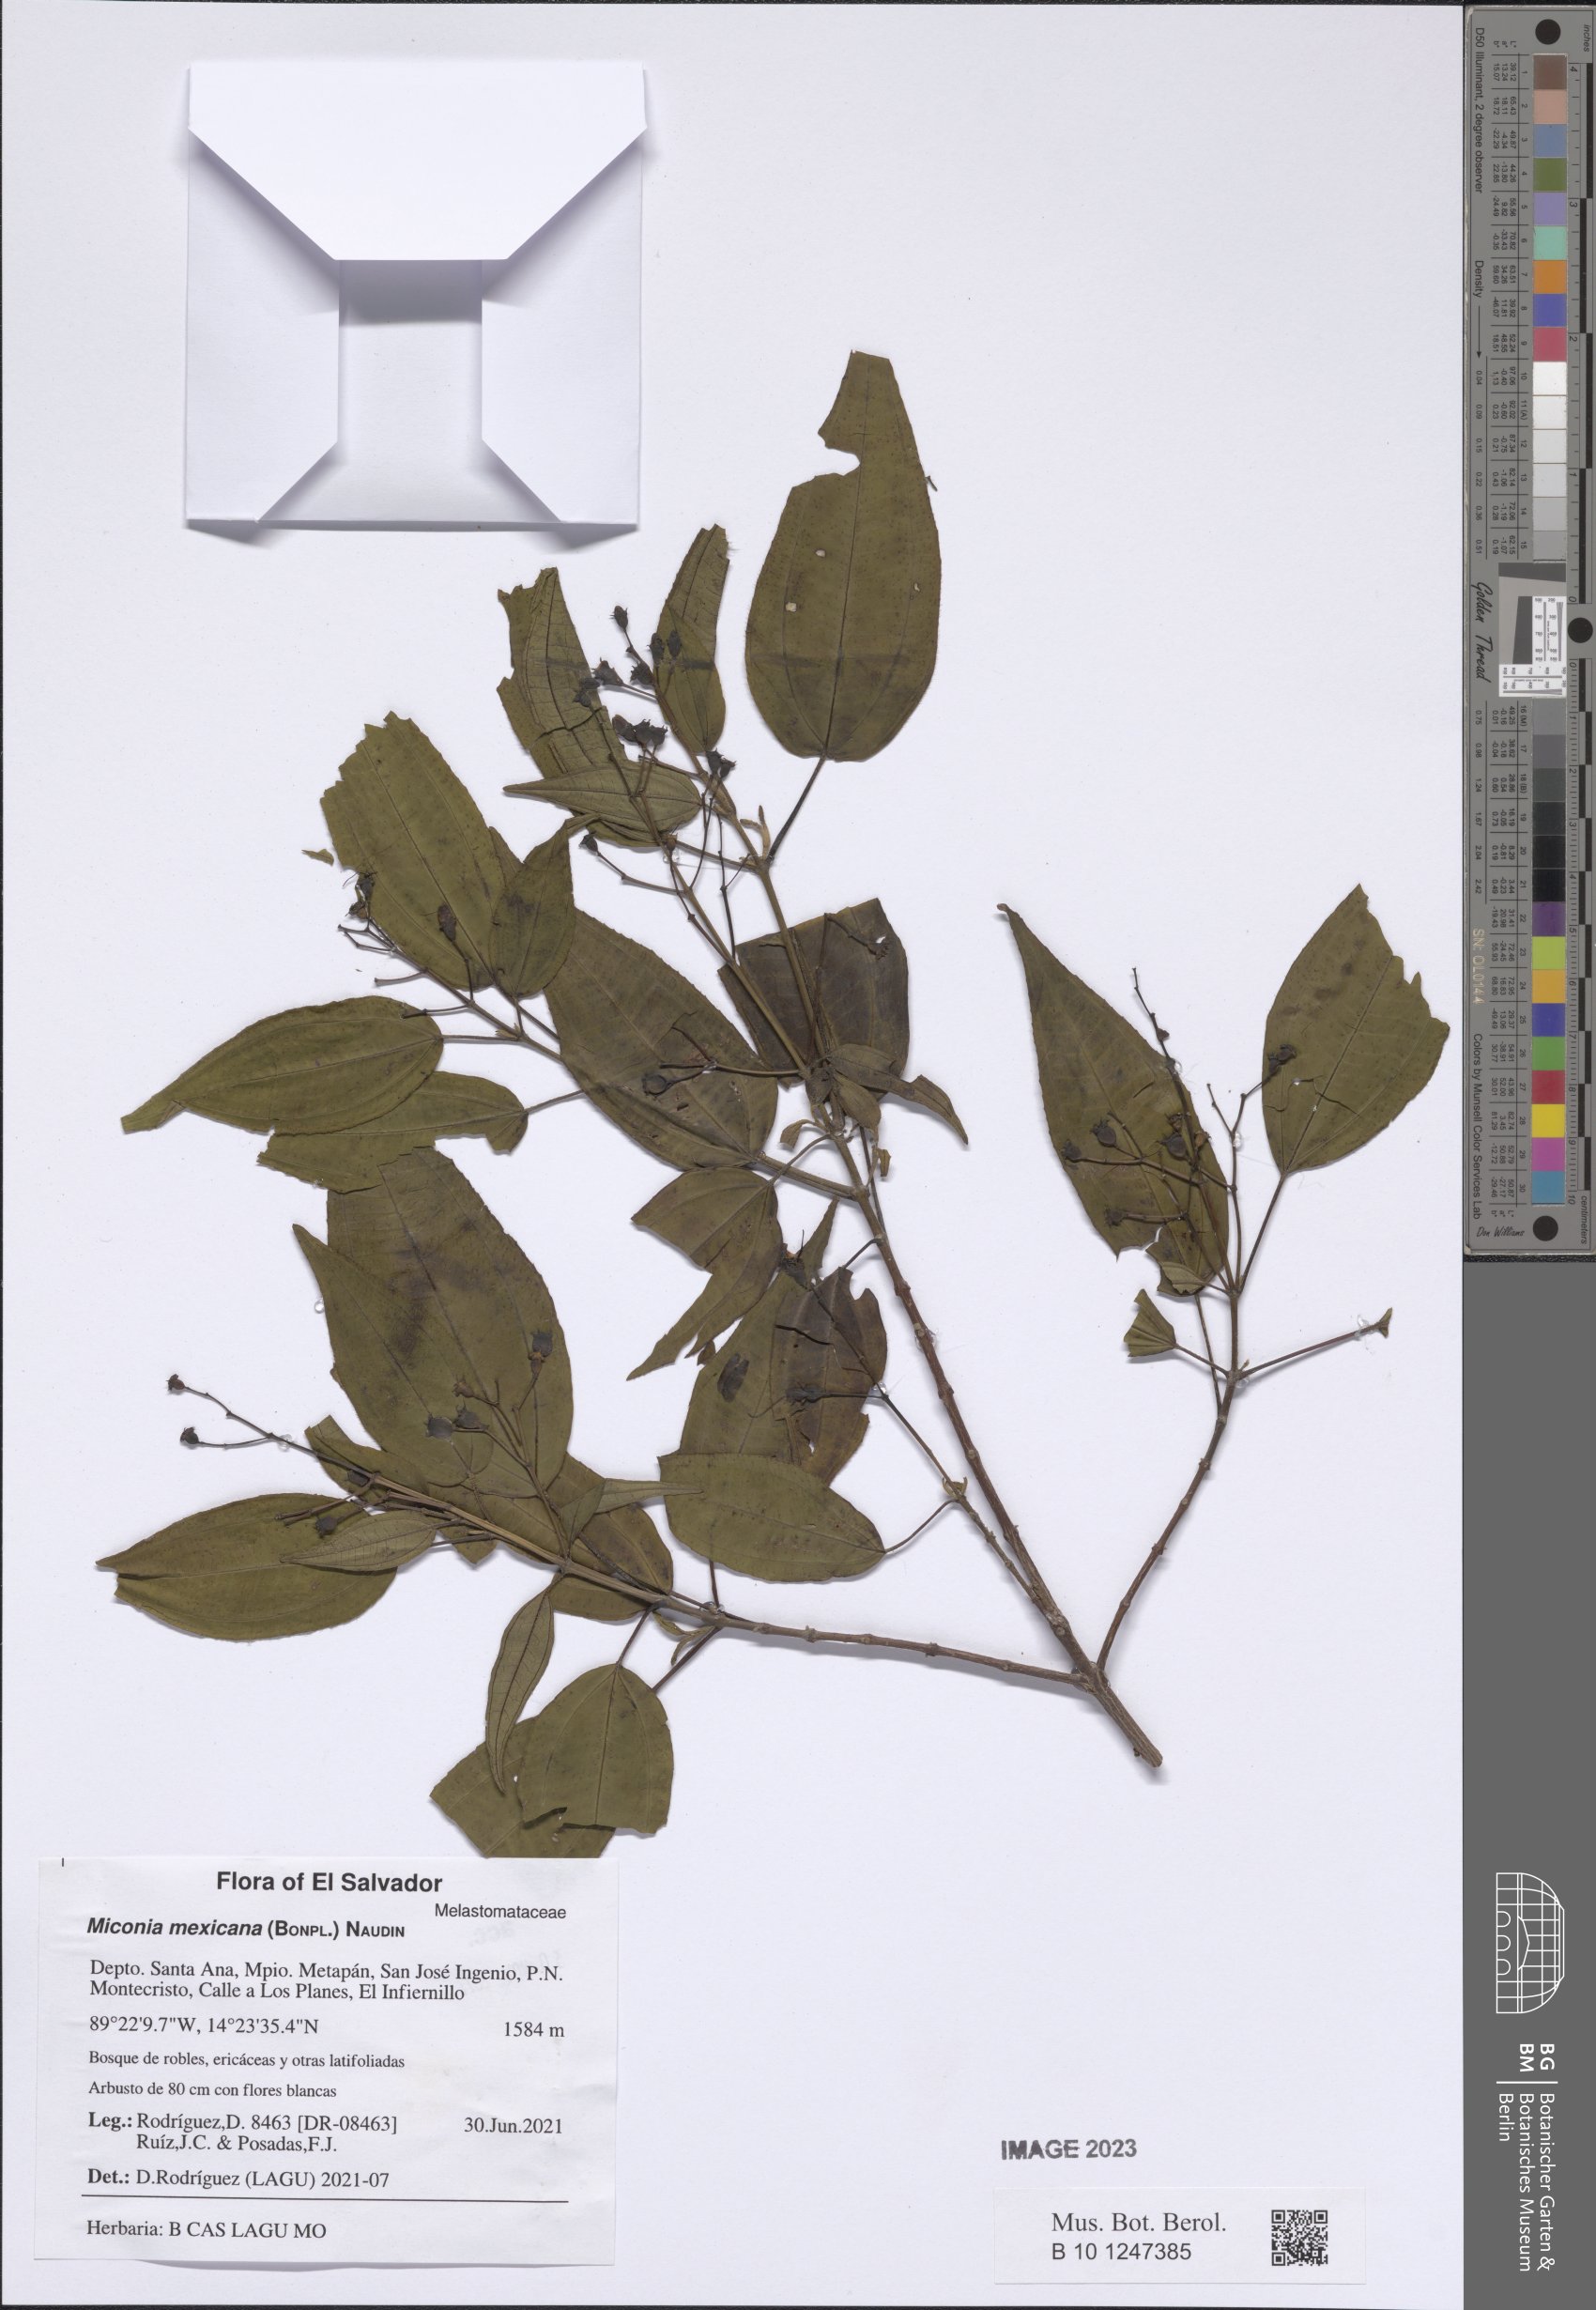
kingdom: Plantae
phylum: Tracheophyta
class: Magnoliopsida
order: Myrtales
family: Melastomataceae
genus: Miconia
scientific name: Miconia mexicana
